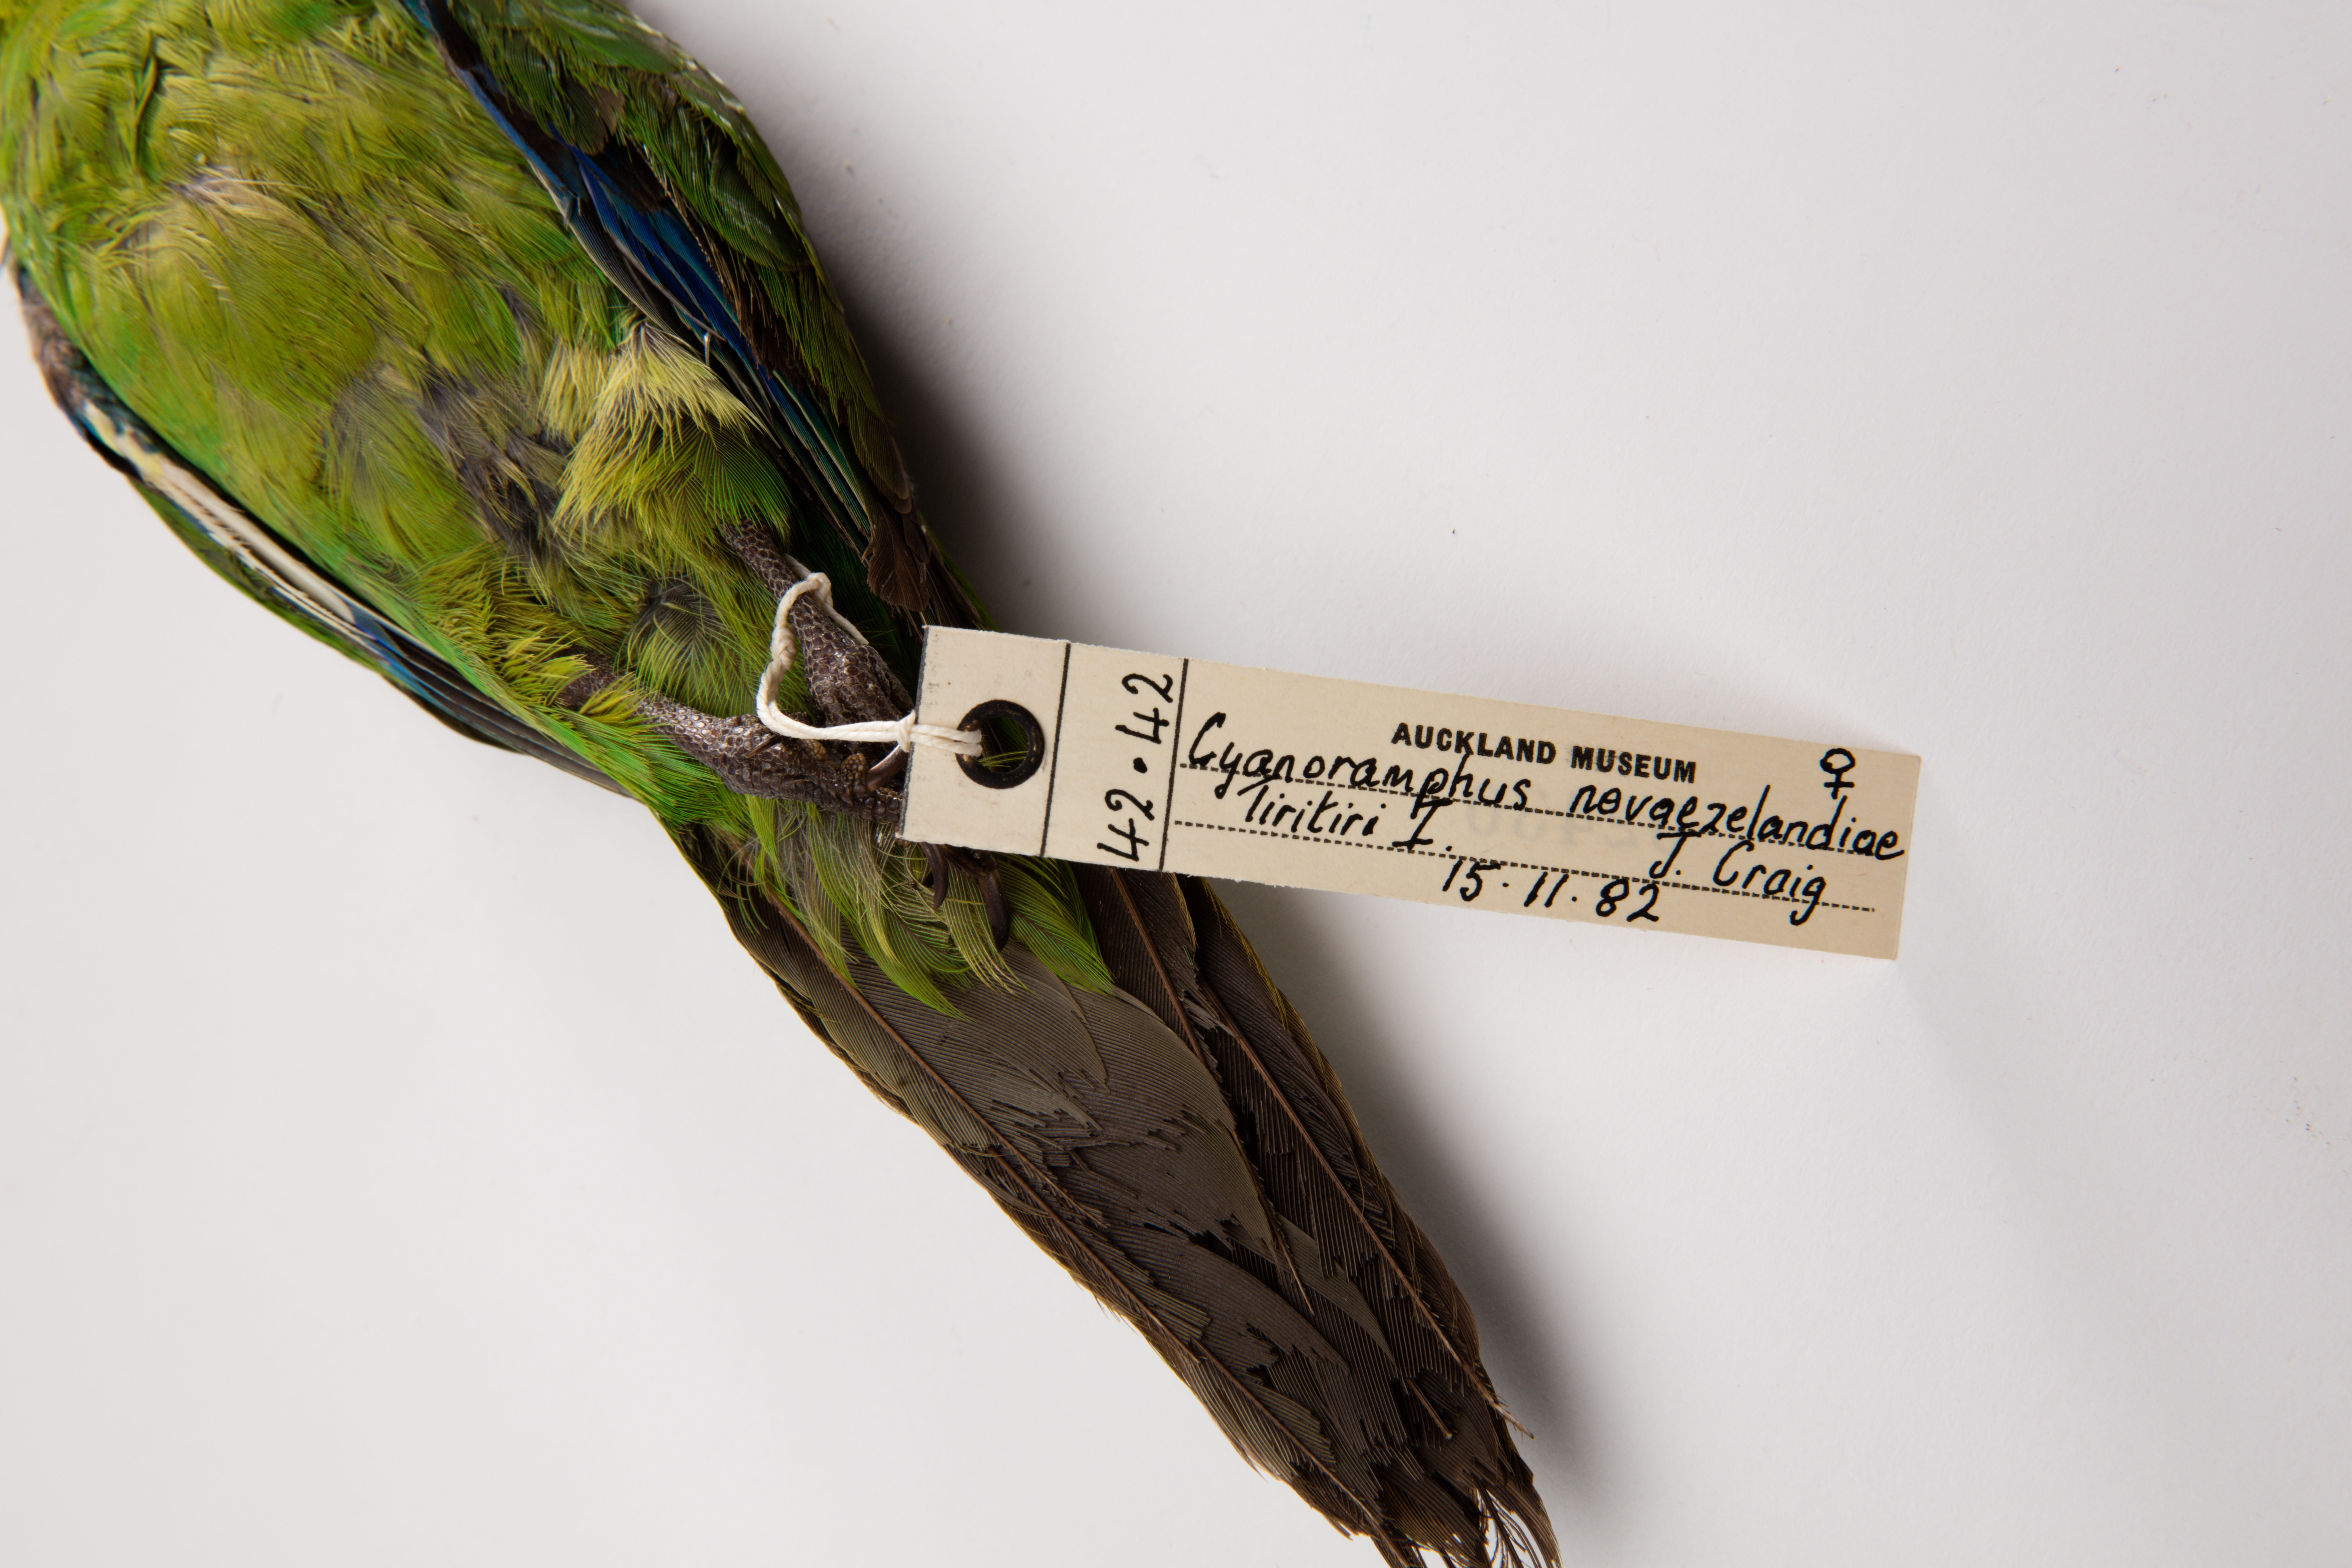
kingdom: Animalia
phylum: Chordata
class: Aves
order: Psittaciformes
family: Psittacidae
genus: Cyanoramphus
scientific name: Cyanoramphus novaezelandiae
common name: Red-fronted parakeet
